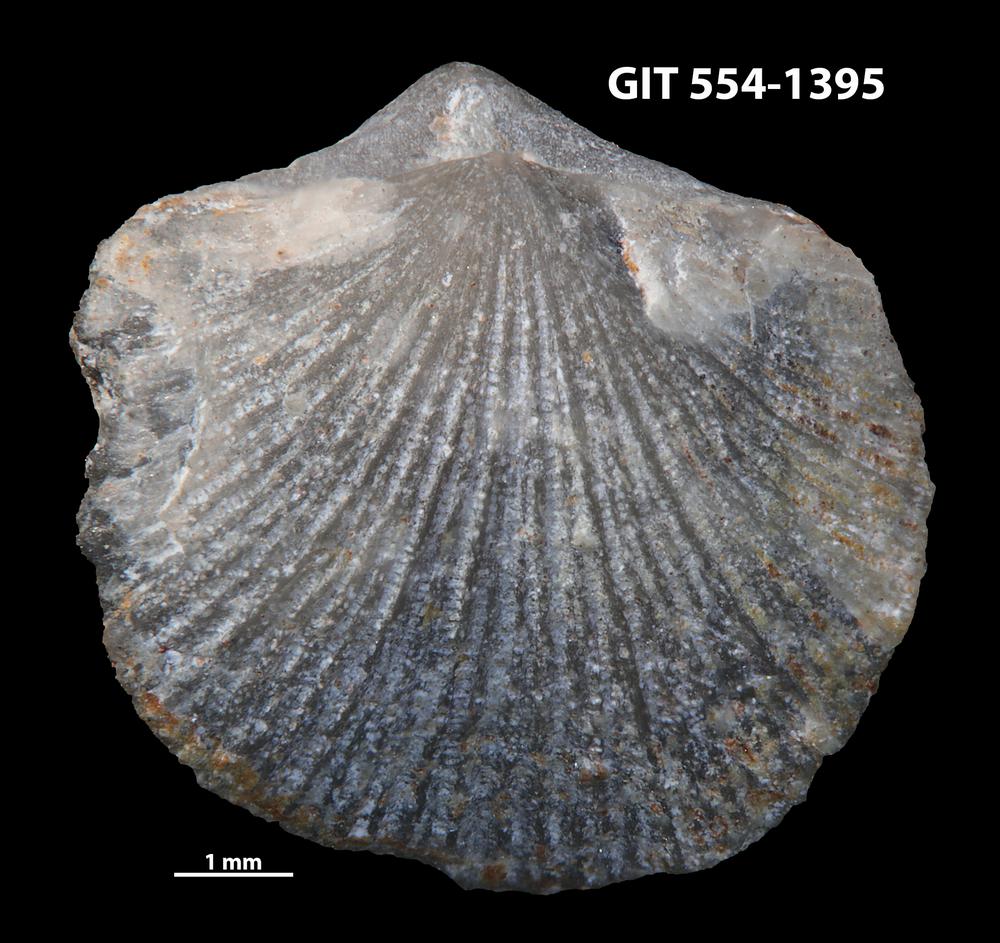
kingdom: Animalia
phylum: Brachiopoda
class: Rhynchonellata
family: Dalmanellidae
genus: Dalmanella
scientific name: Dalmanella rosensteinae
